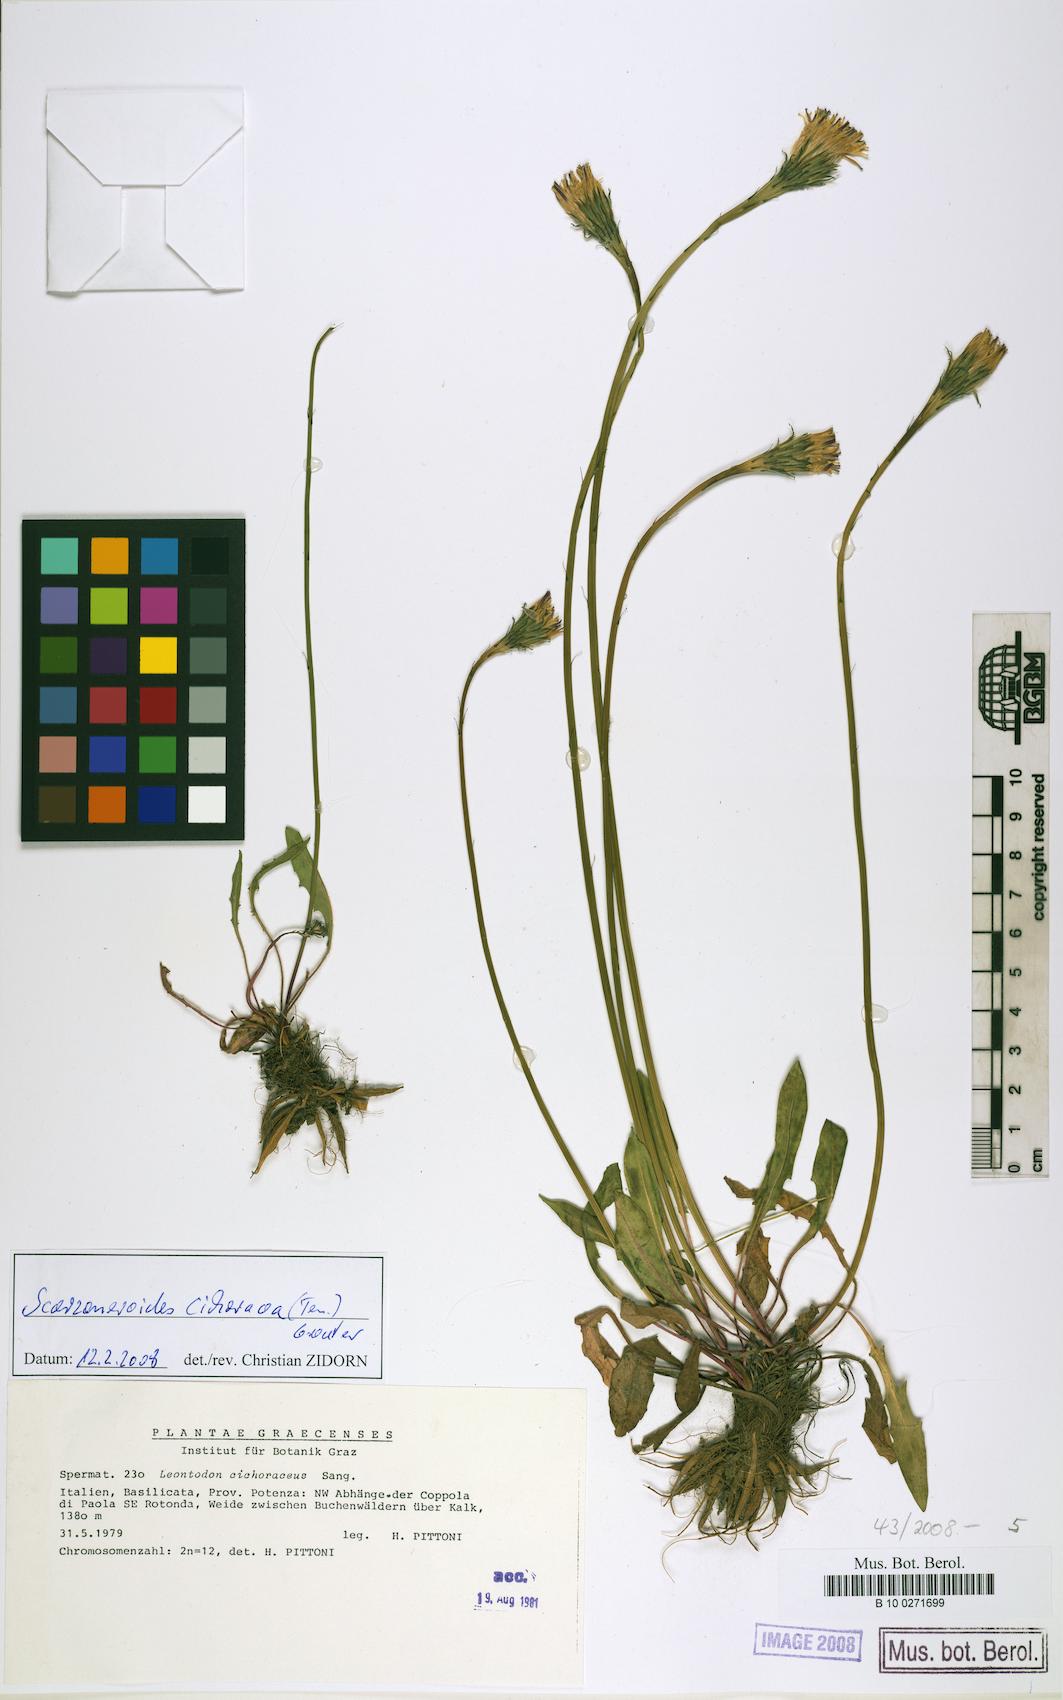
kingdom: Plantae
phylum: Tracheophyta
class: Magnoliopsida
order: Asterales
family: Asteraceae
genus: Scorzoneroides
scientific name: Scorzoneroides cichoriacea
